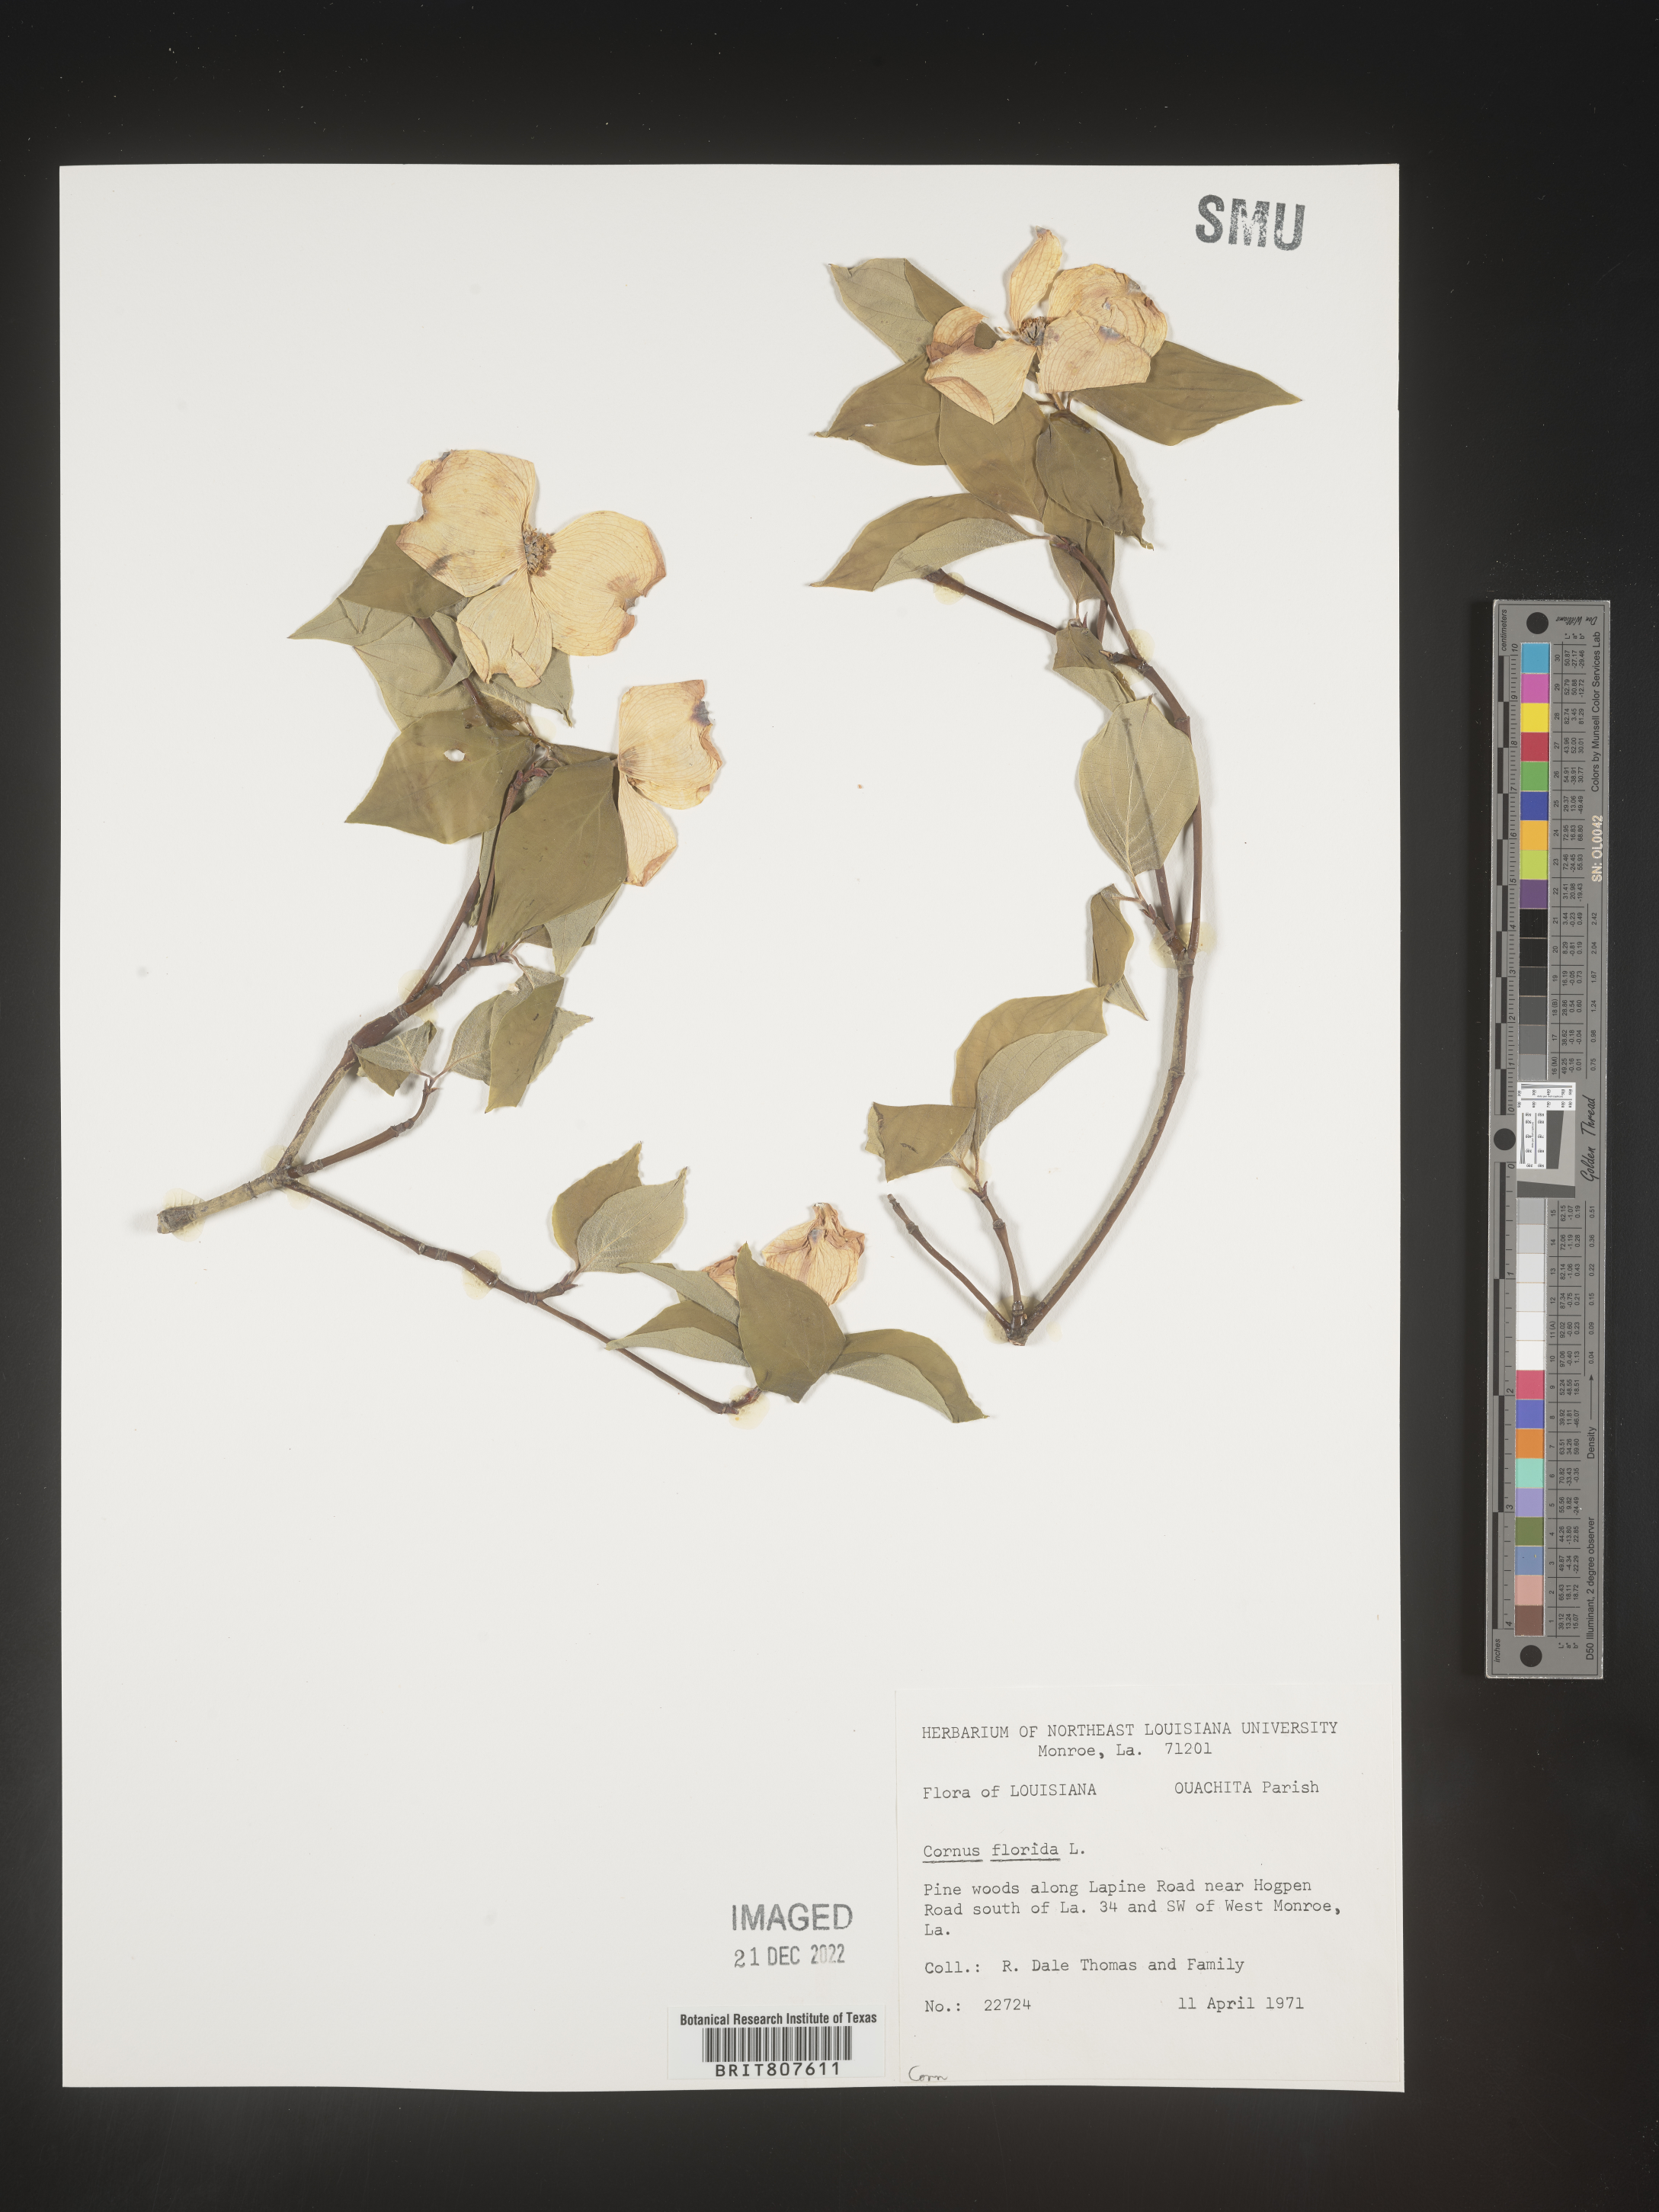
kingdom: Plantae
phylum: Tracheophyta
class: Magnoliopsida
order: Cornales
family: Cornaceae
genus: Cornus
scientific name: Cornus florida
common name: Flowering dogwood
